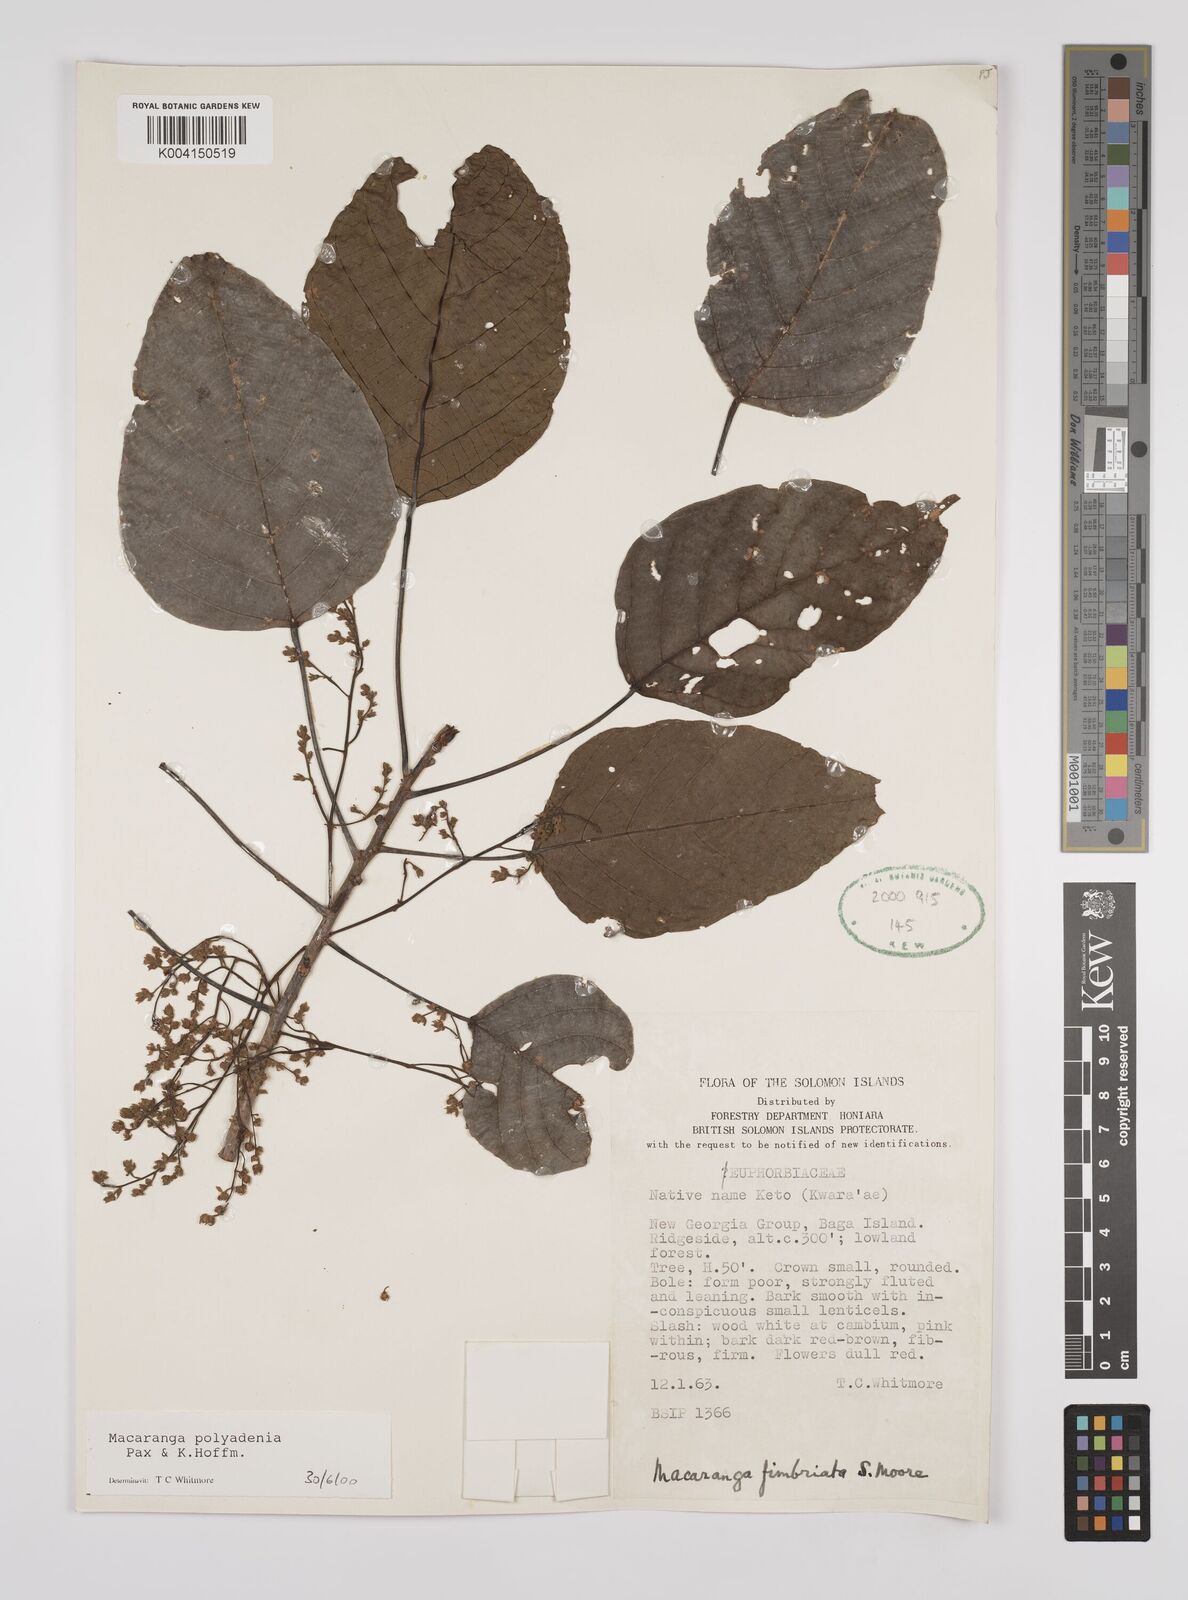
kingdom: Plantae
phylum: Tracheophyta
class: Magnoliopsida
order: Malpighiales
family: Euphorbiaceae
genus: Macaranga
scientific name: Macaranga polyadenia
